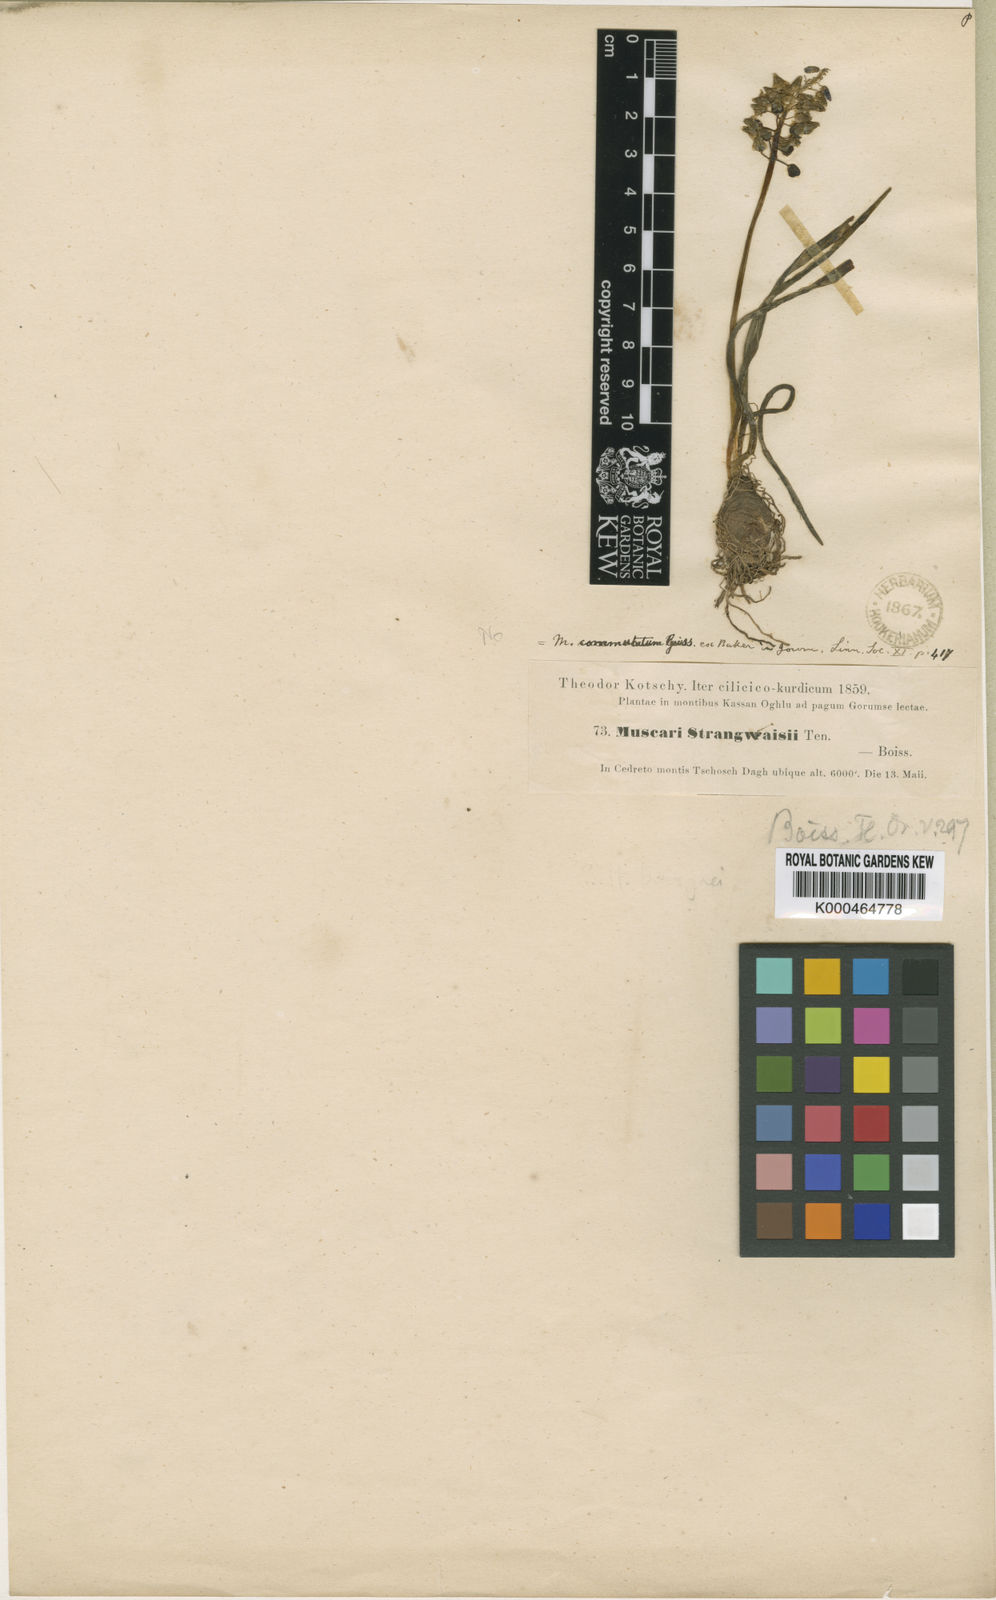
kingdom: Plantae
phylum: Tracheophyta
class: Liliopsida
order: Asparagales
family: Asparagaceae
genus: Muscari
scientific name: Muscari armeniacum
